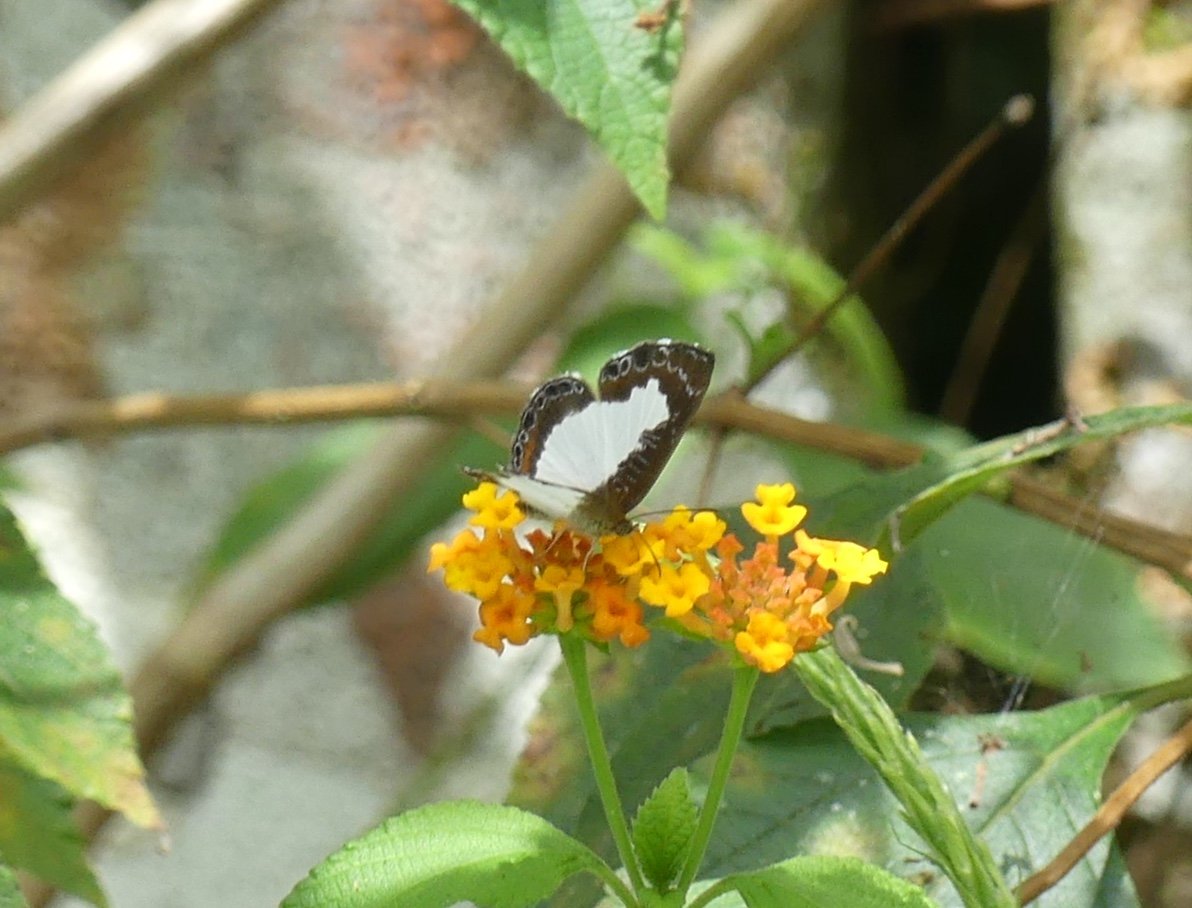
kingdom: Animalia
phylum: Arthropoda
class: Insecta
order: Lepidoptera
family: Riodinidae
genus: Juditha
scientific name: Juditha caucana
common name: Molpe Metalmark
